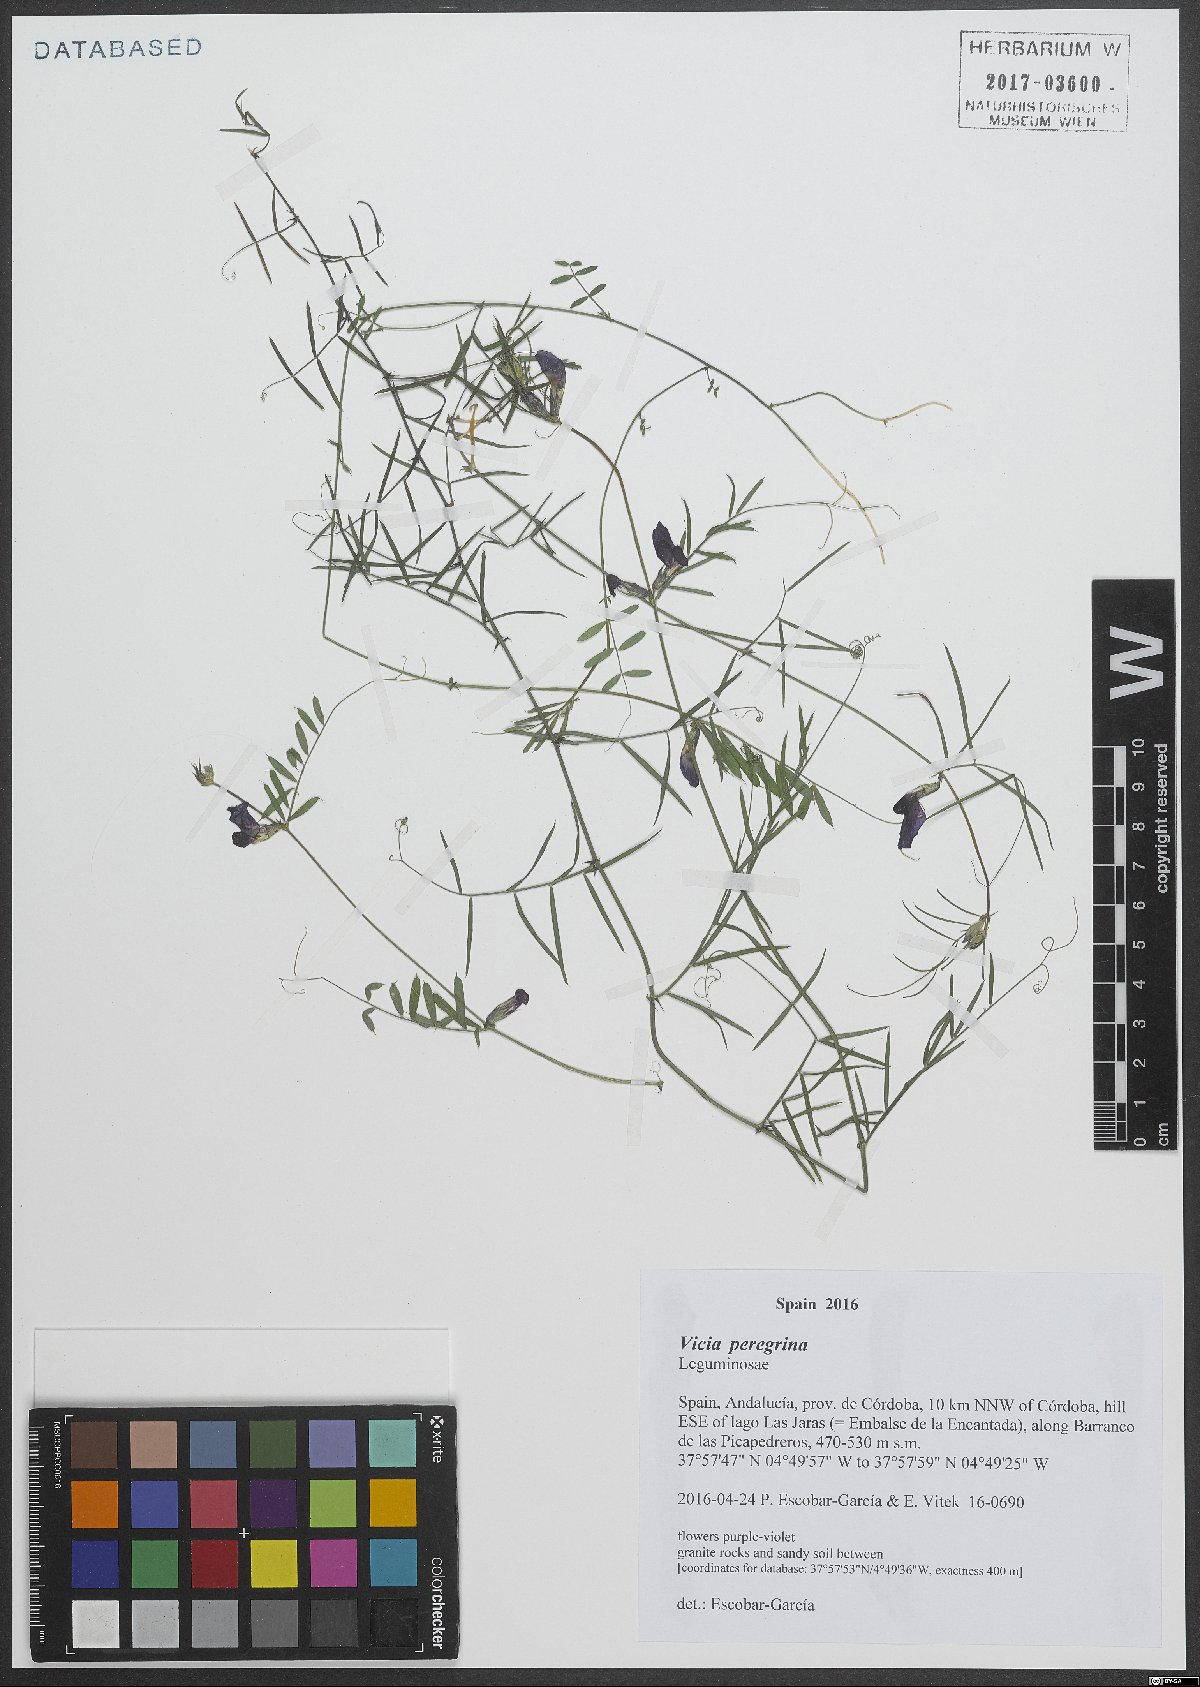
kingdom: Plantae
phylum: Tracheophyta
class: Magnoliopsida
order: Fabales
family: Fabaceae
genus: Vicia
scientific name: Vicia peregrina
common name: Broad-pod vetch
